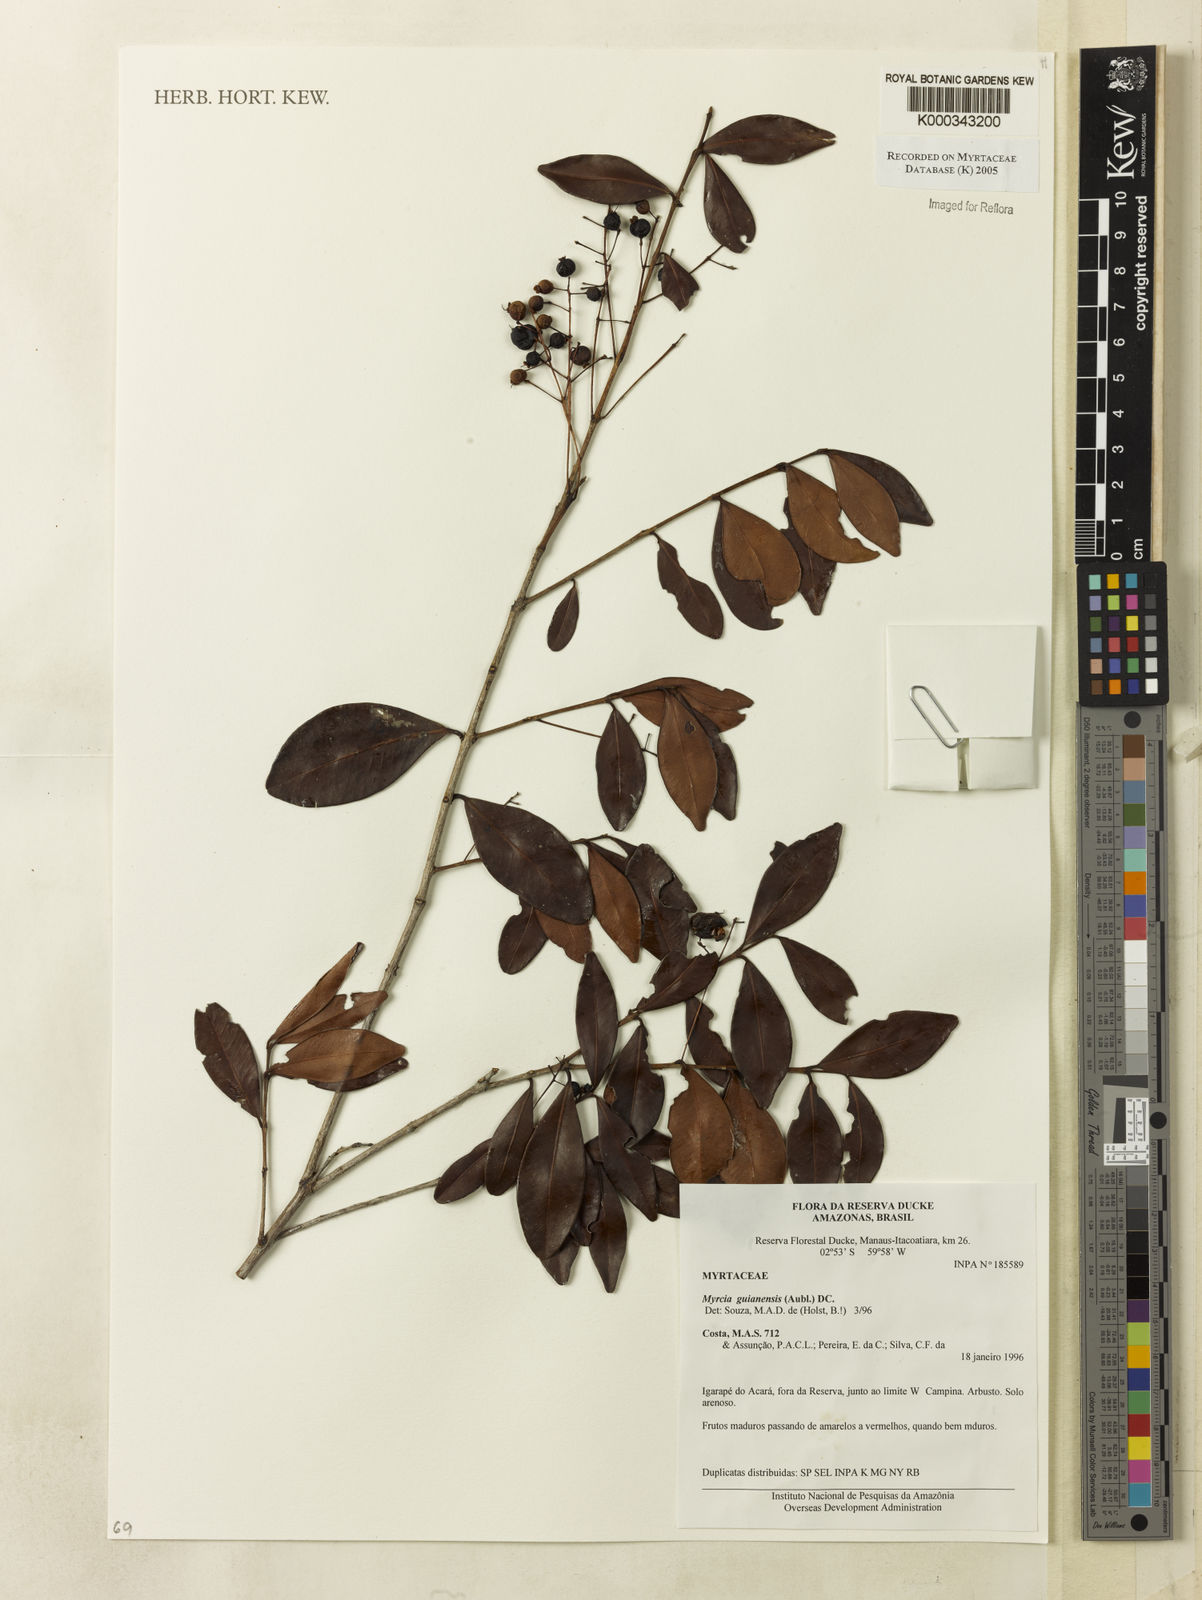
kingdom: Plantae
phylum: Tracheophyta
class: Magnoliopsida
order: Myrtales
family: Myrtaceae
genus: Myrcia
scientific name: Myrcia guianensis
